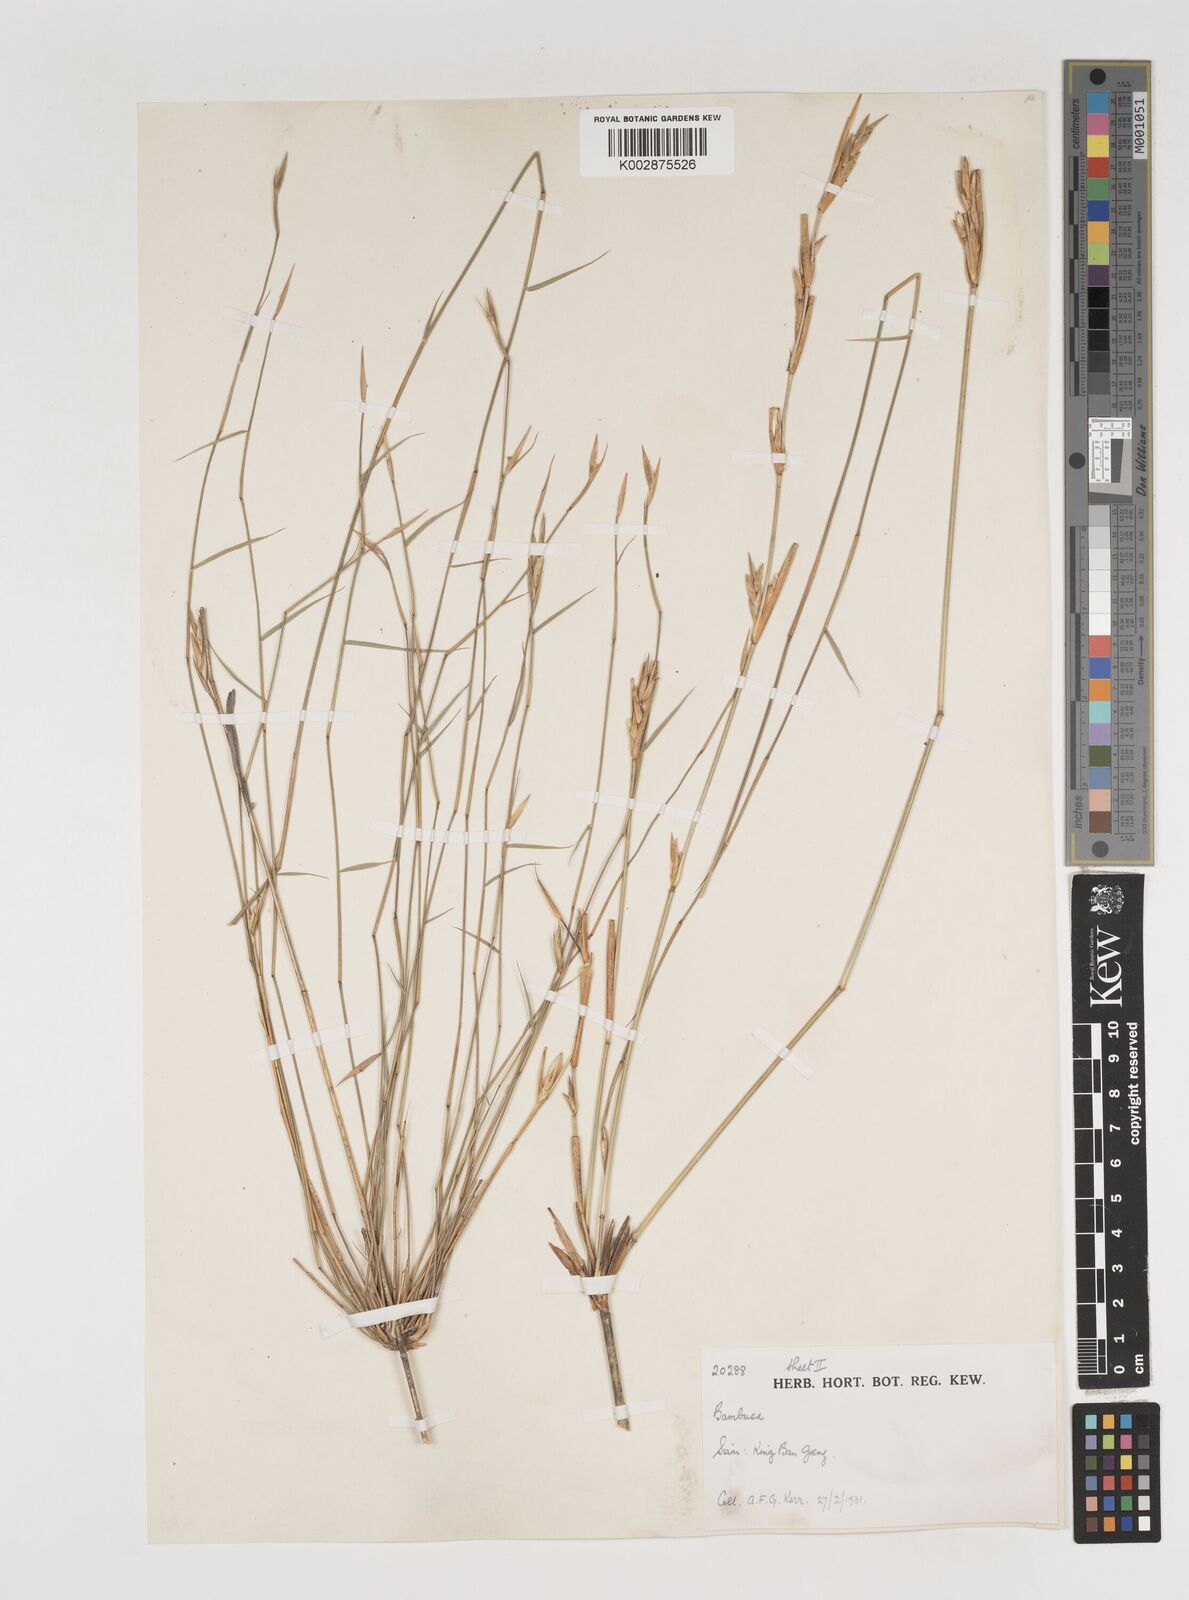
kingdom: Plantae
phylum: Tracheophyta
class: Liliopsida
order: Poales
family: Poaceae
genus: Vietnamosasa
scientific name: Vietnamosasa
